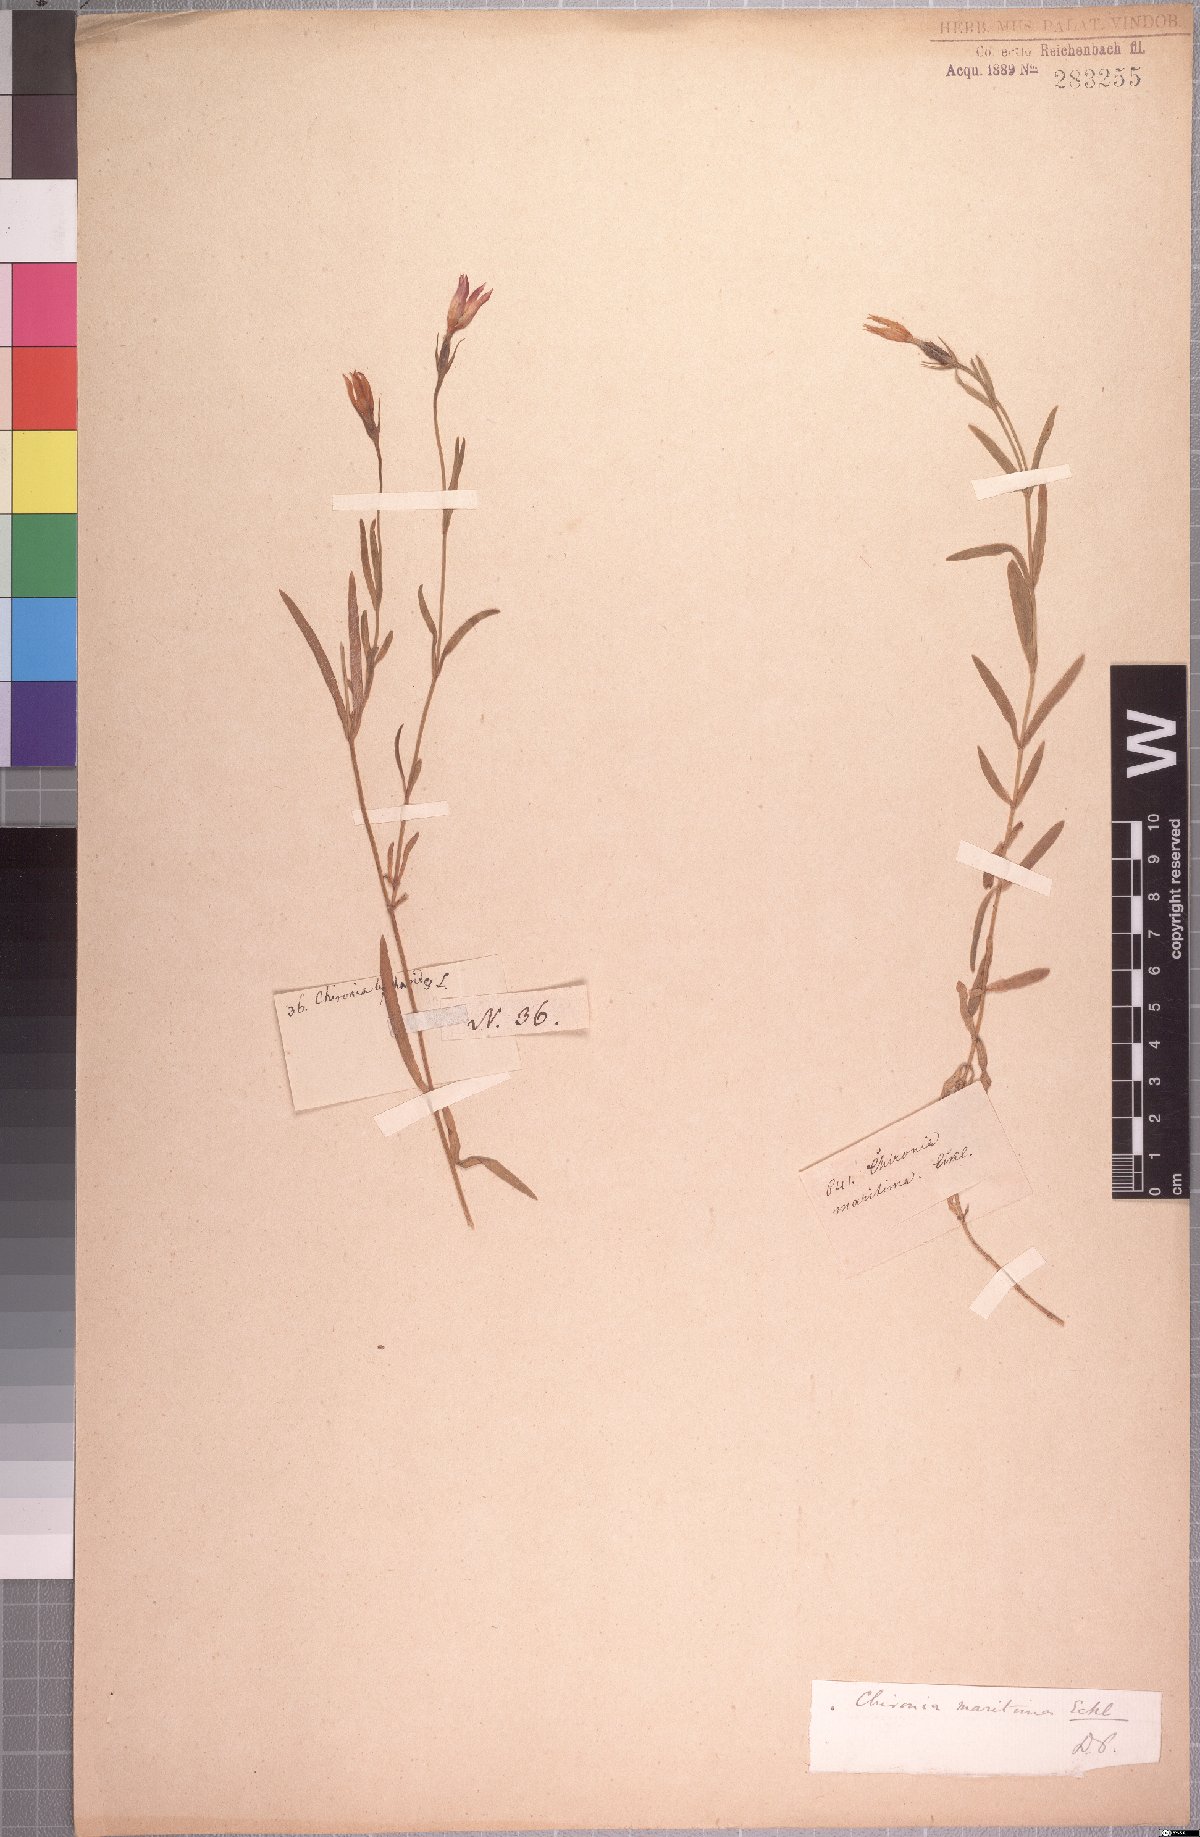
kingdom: Plantae
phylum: Tracheophyta
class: Magnoliopsida
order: Gentianales
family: Gentianaceae
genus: Chironia
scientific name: Chironia decumbens
